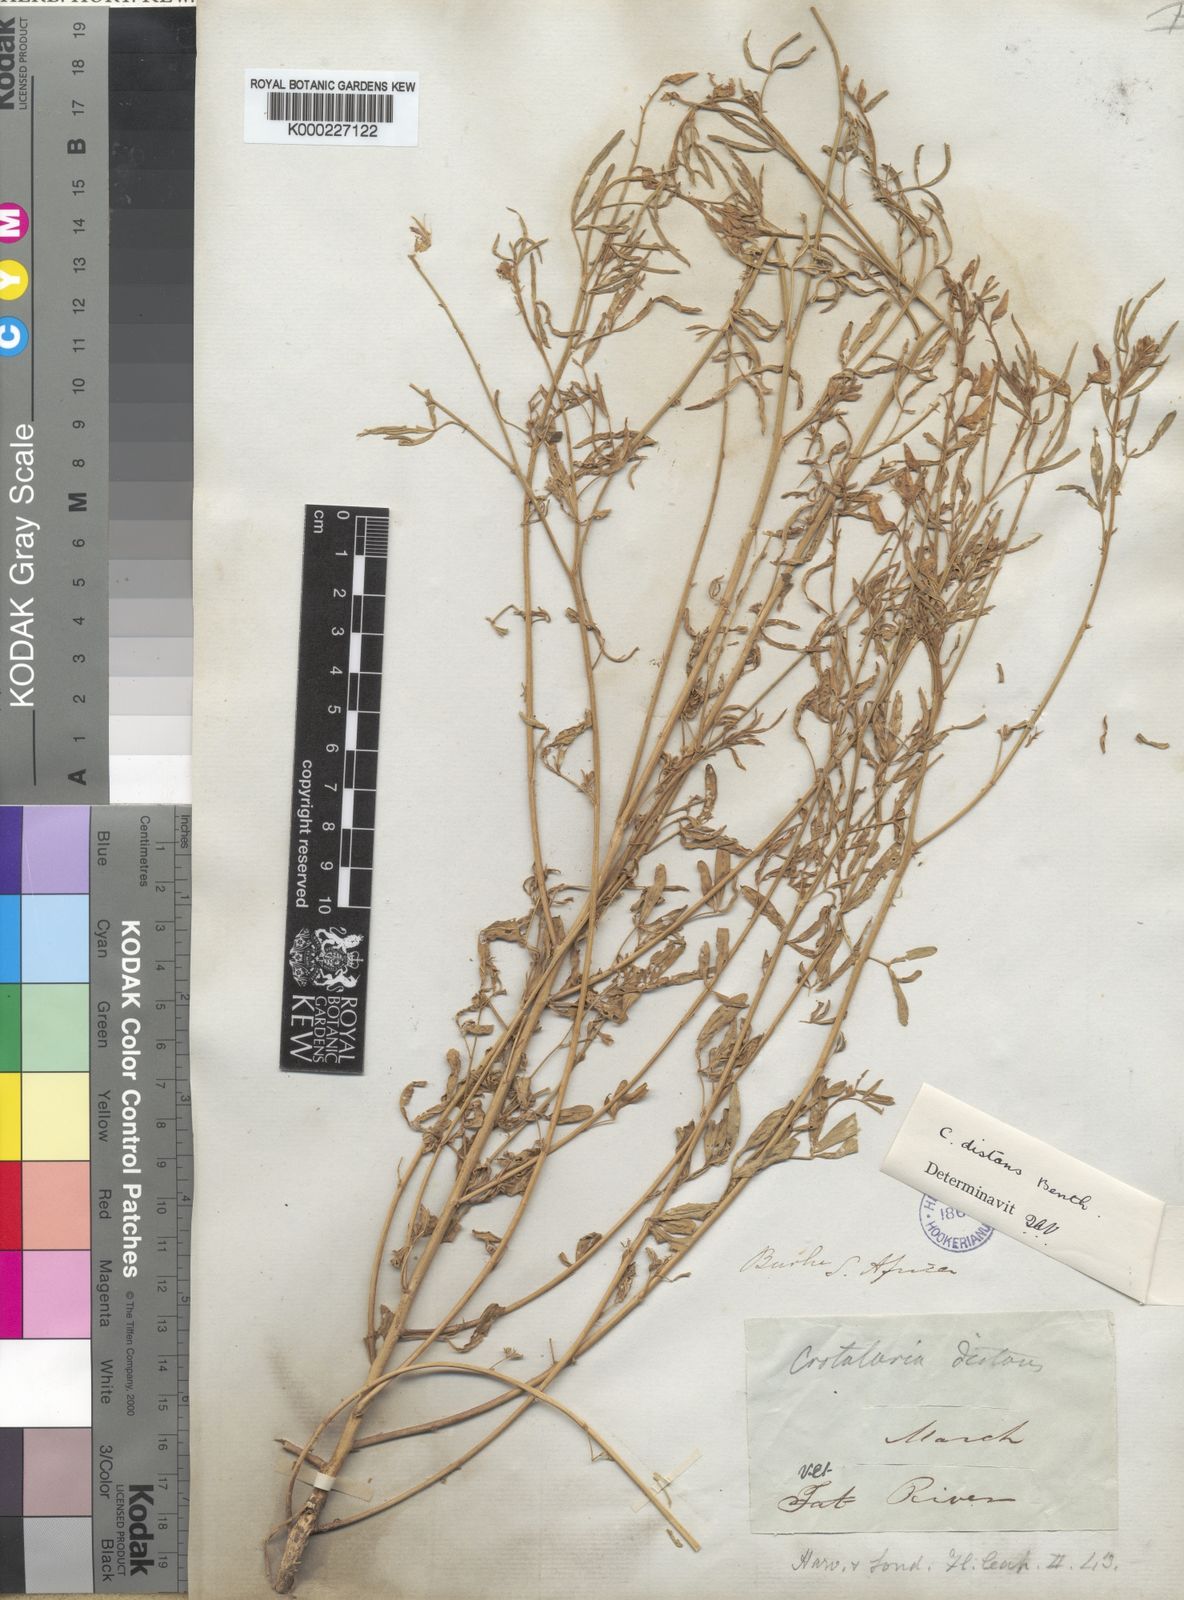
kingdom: Plantae
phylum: Tracheophyta
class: Magnoliopsida
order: Fabales
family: Fabaceae
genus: Crotalaria
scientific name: Crotalaria distans
